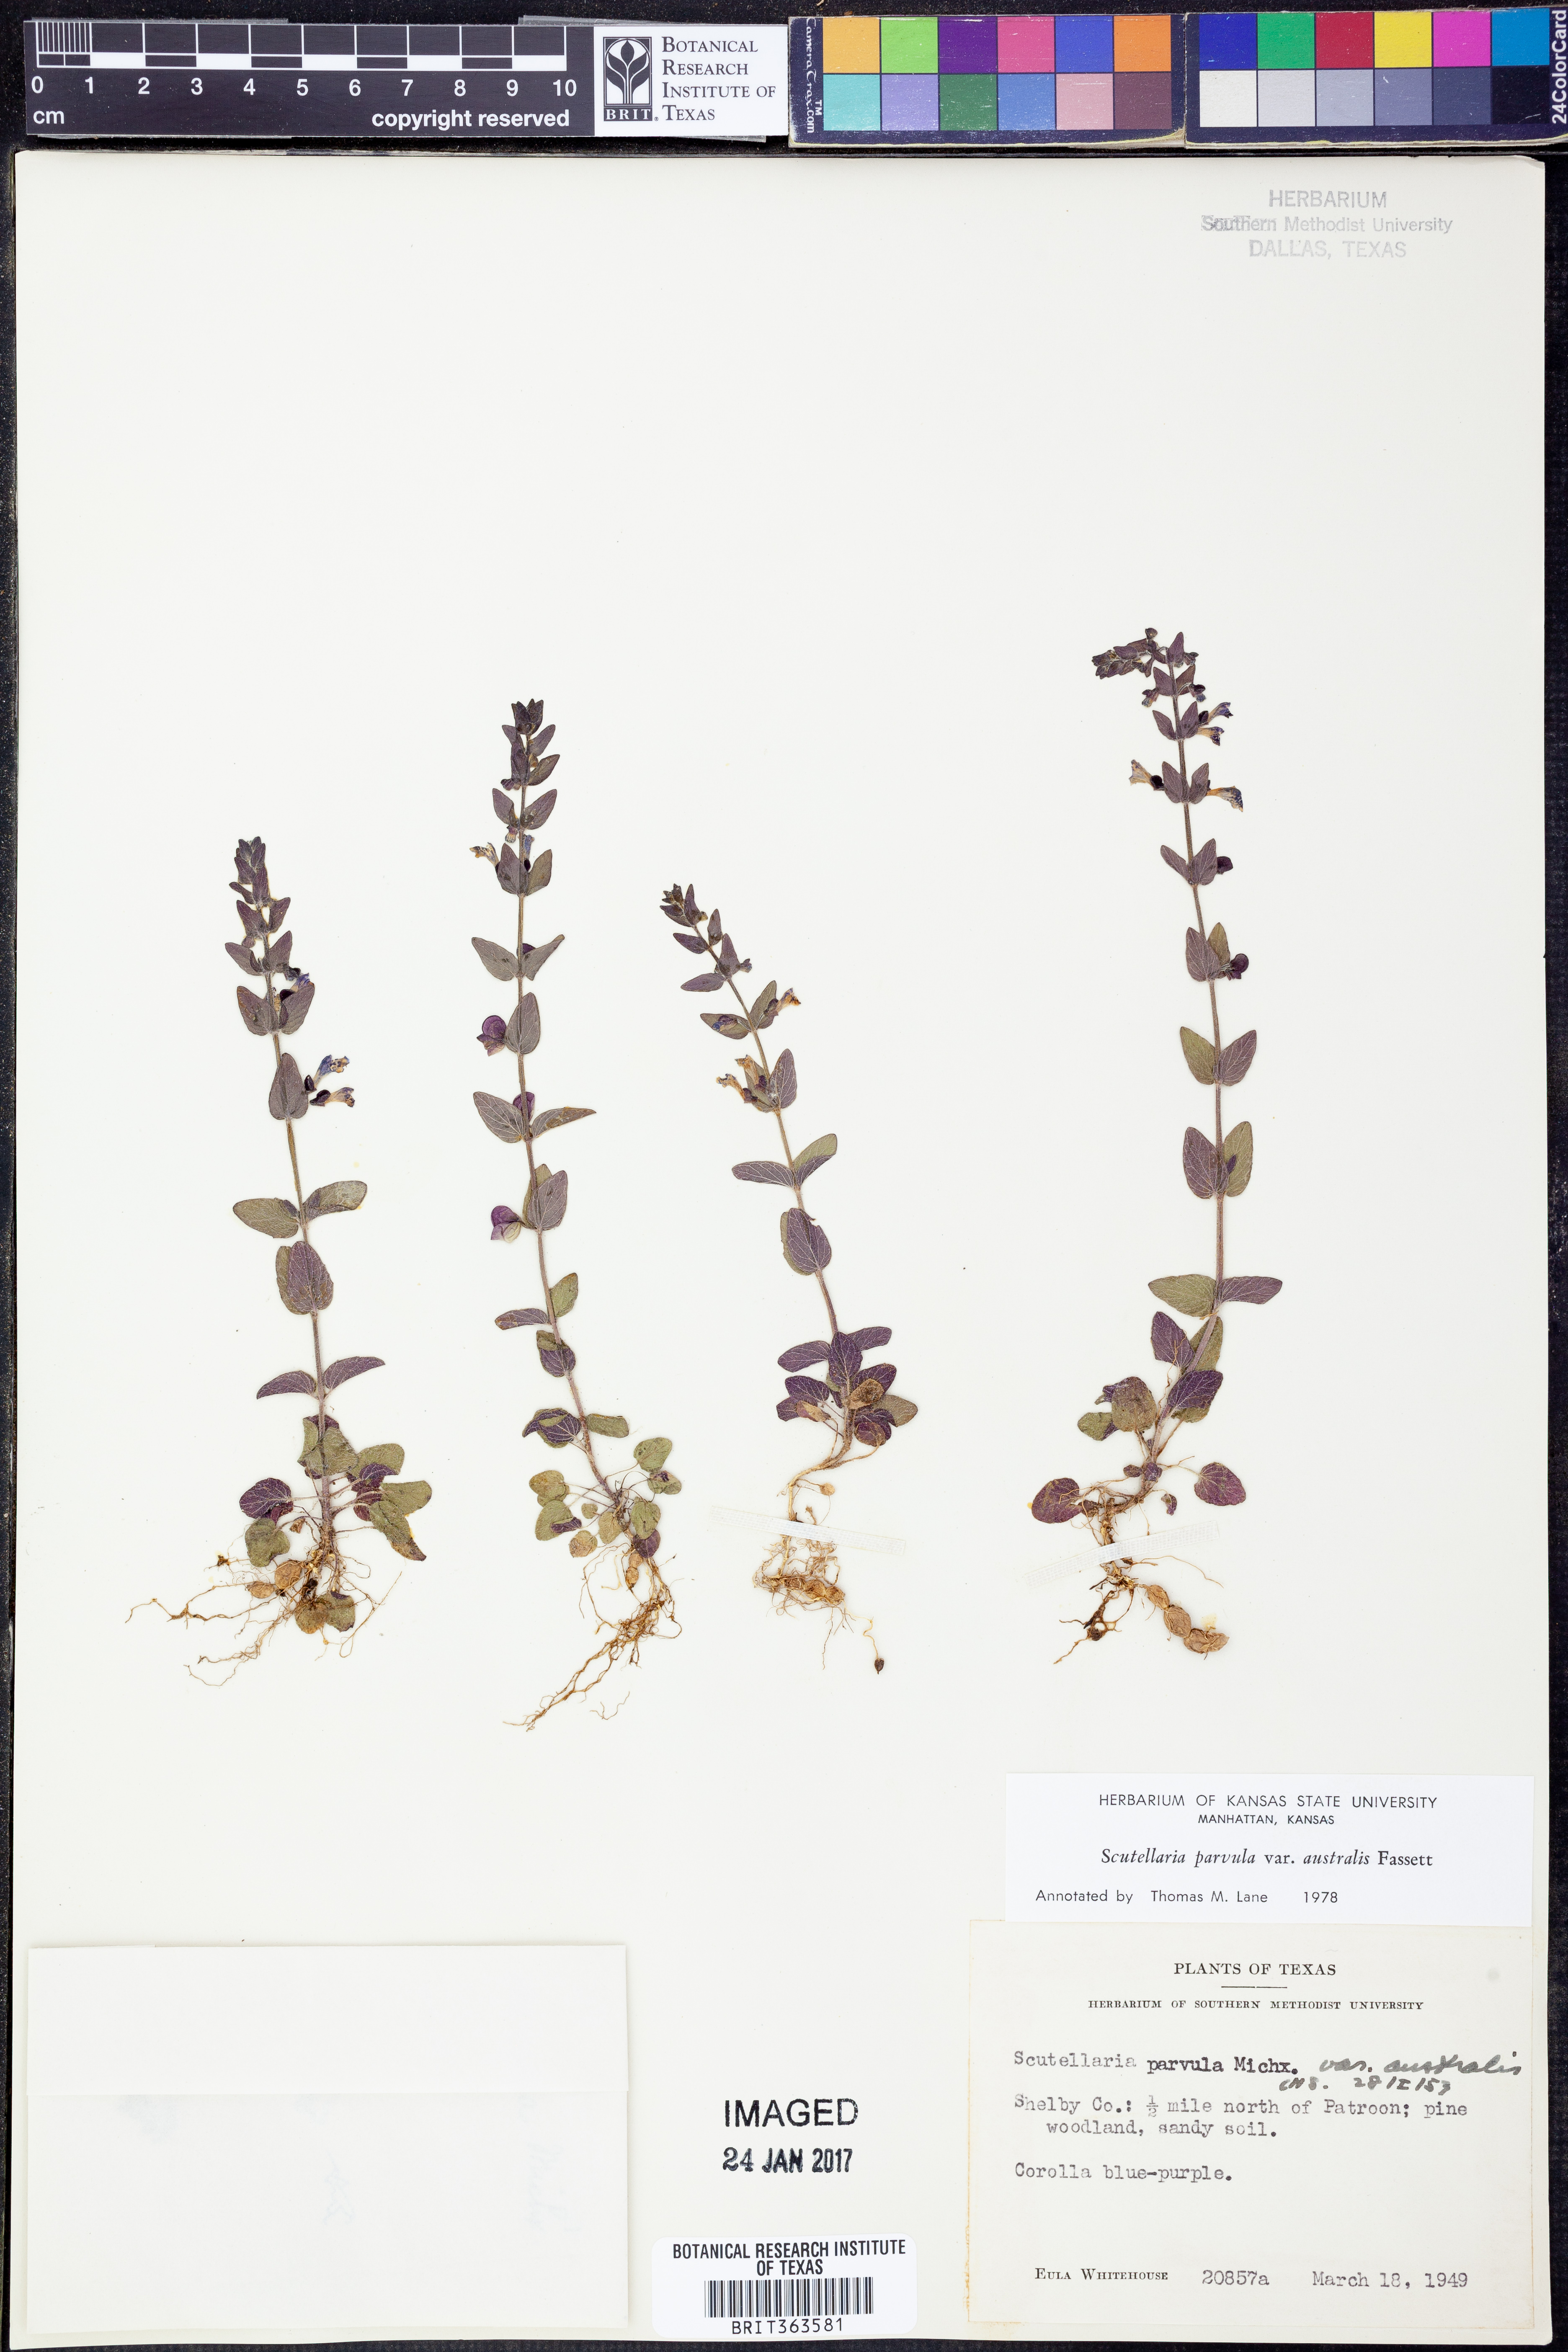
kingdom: Plantae
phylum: Tracheophyta
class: Magnoliopsida
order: Lamiales
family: Lamiaceae
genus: Scutellaria
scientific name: Scutellaria parvula
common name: Little scullcap
